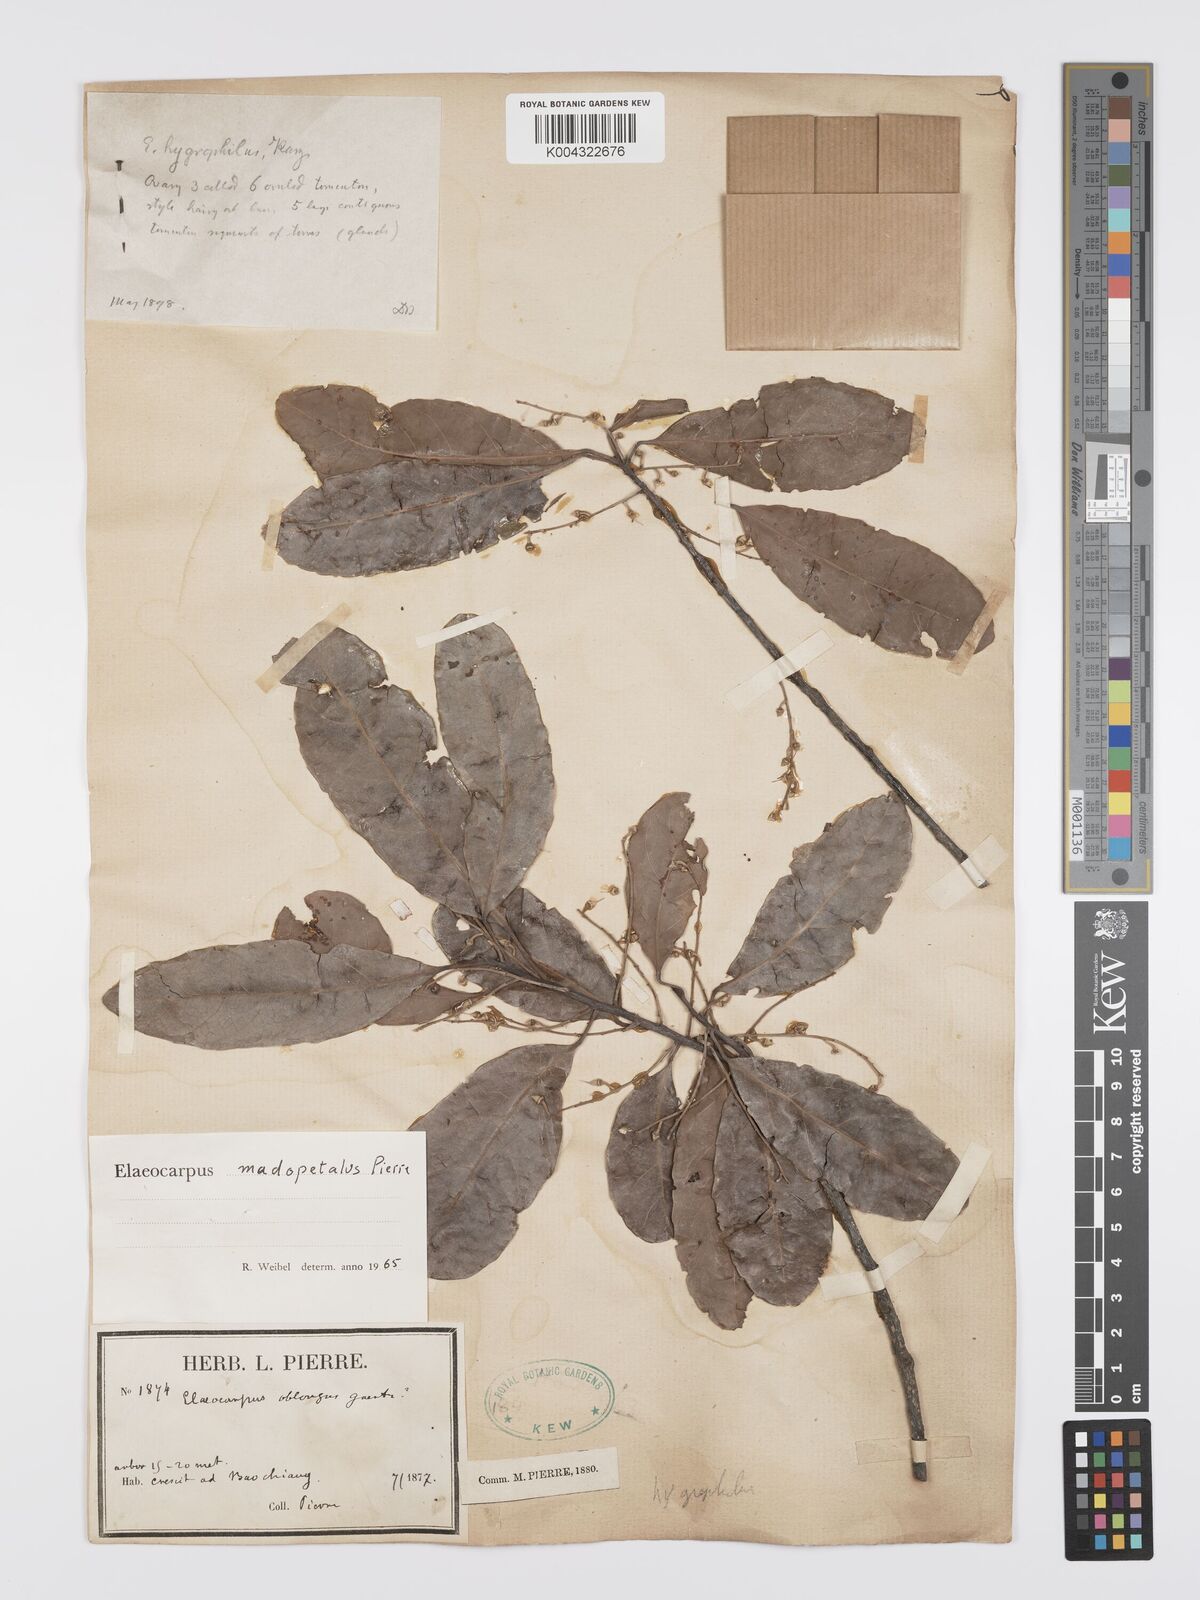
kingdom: Plantae
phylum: Tracheophyta
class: Magnoliopsida
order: Oxalidales
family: Elaeocarpaceae
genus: Elaeocarpus
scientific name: Elaeocarpus hygrophilus
